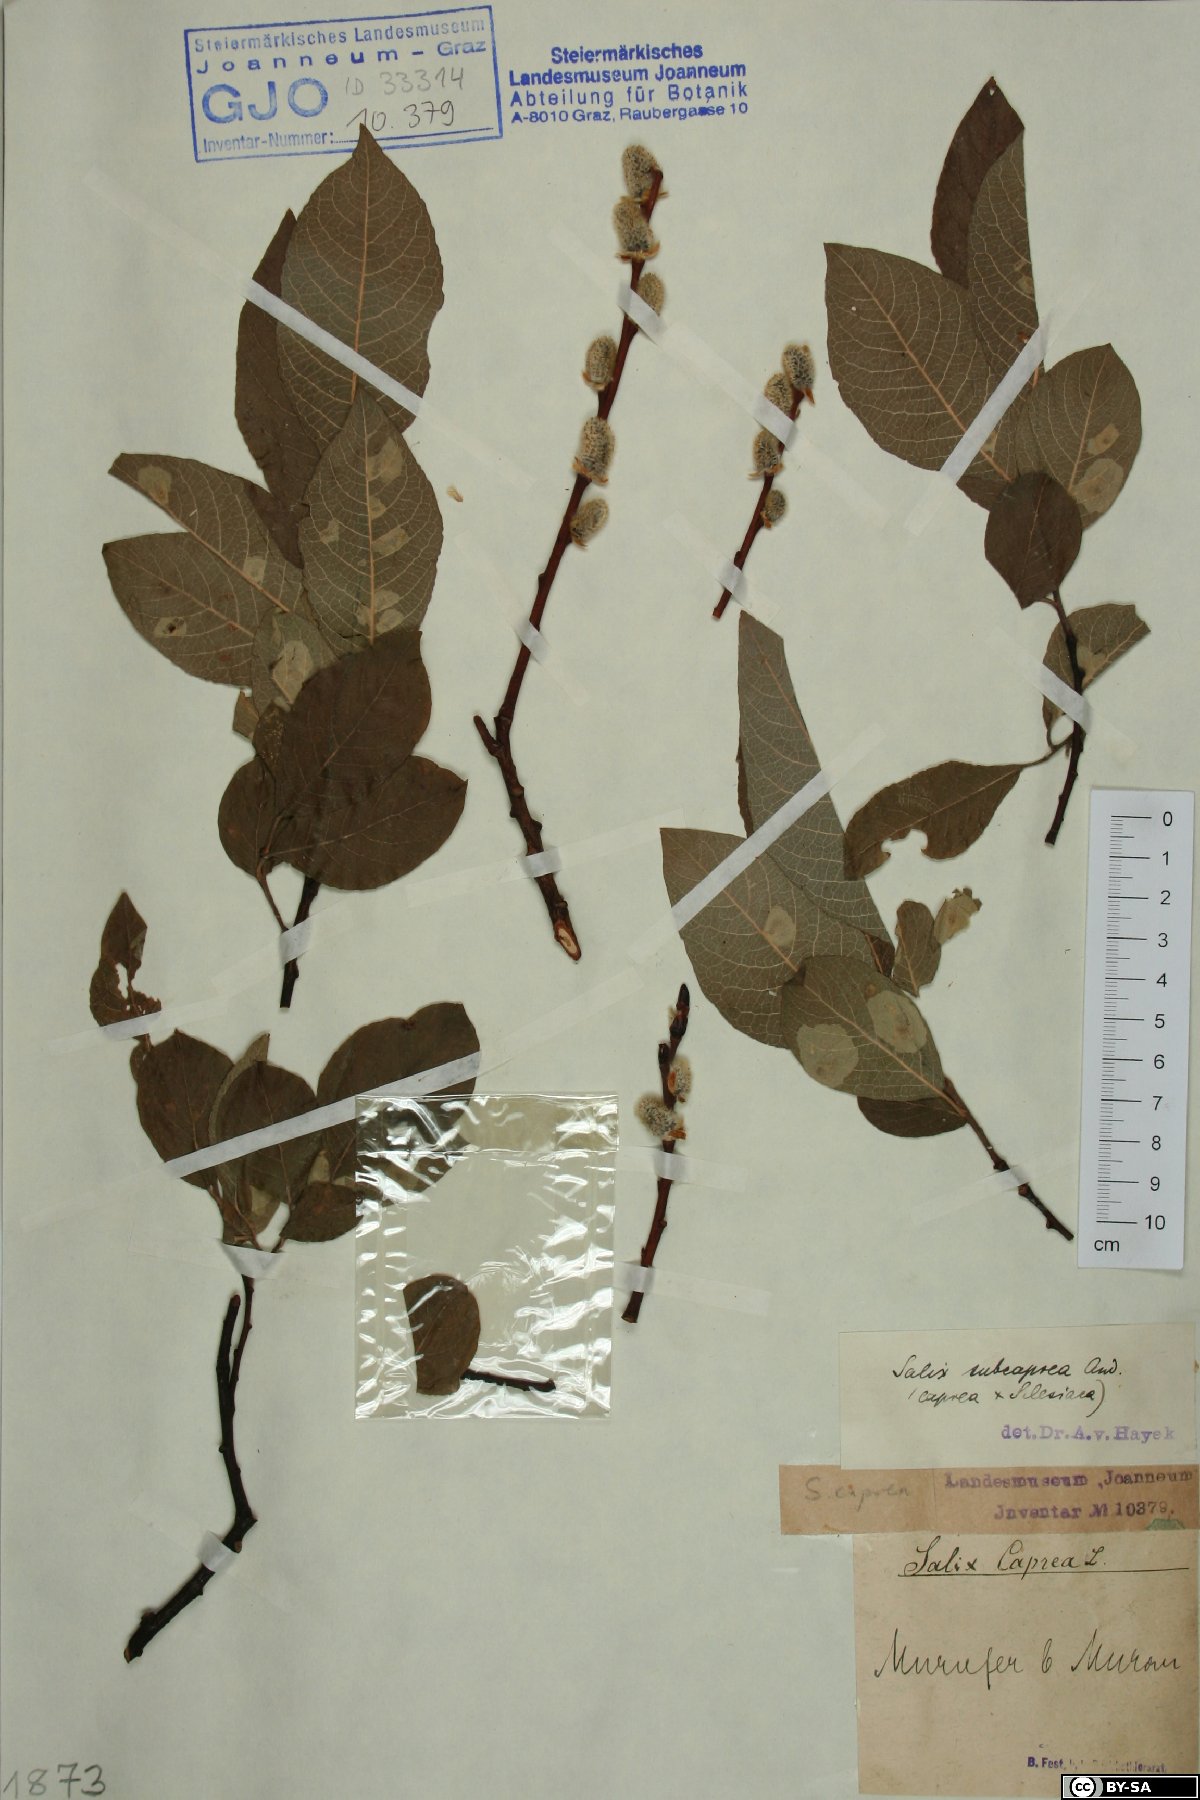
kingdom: Plantae
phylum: Tracheophyta
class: Magnoliopsida
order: Malpighiales
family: Salicaceae
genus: Salix
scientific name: Salix caprea
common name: Goat willow
